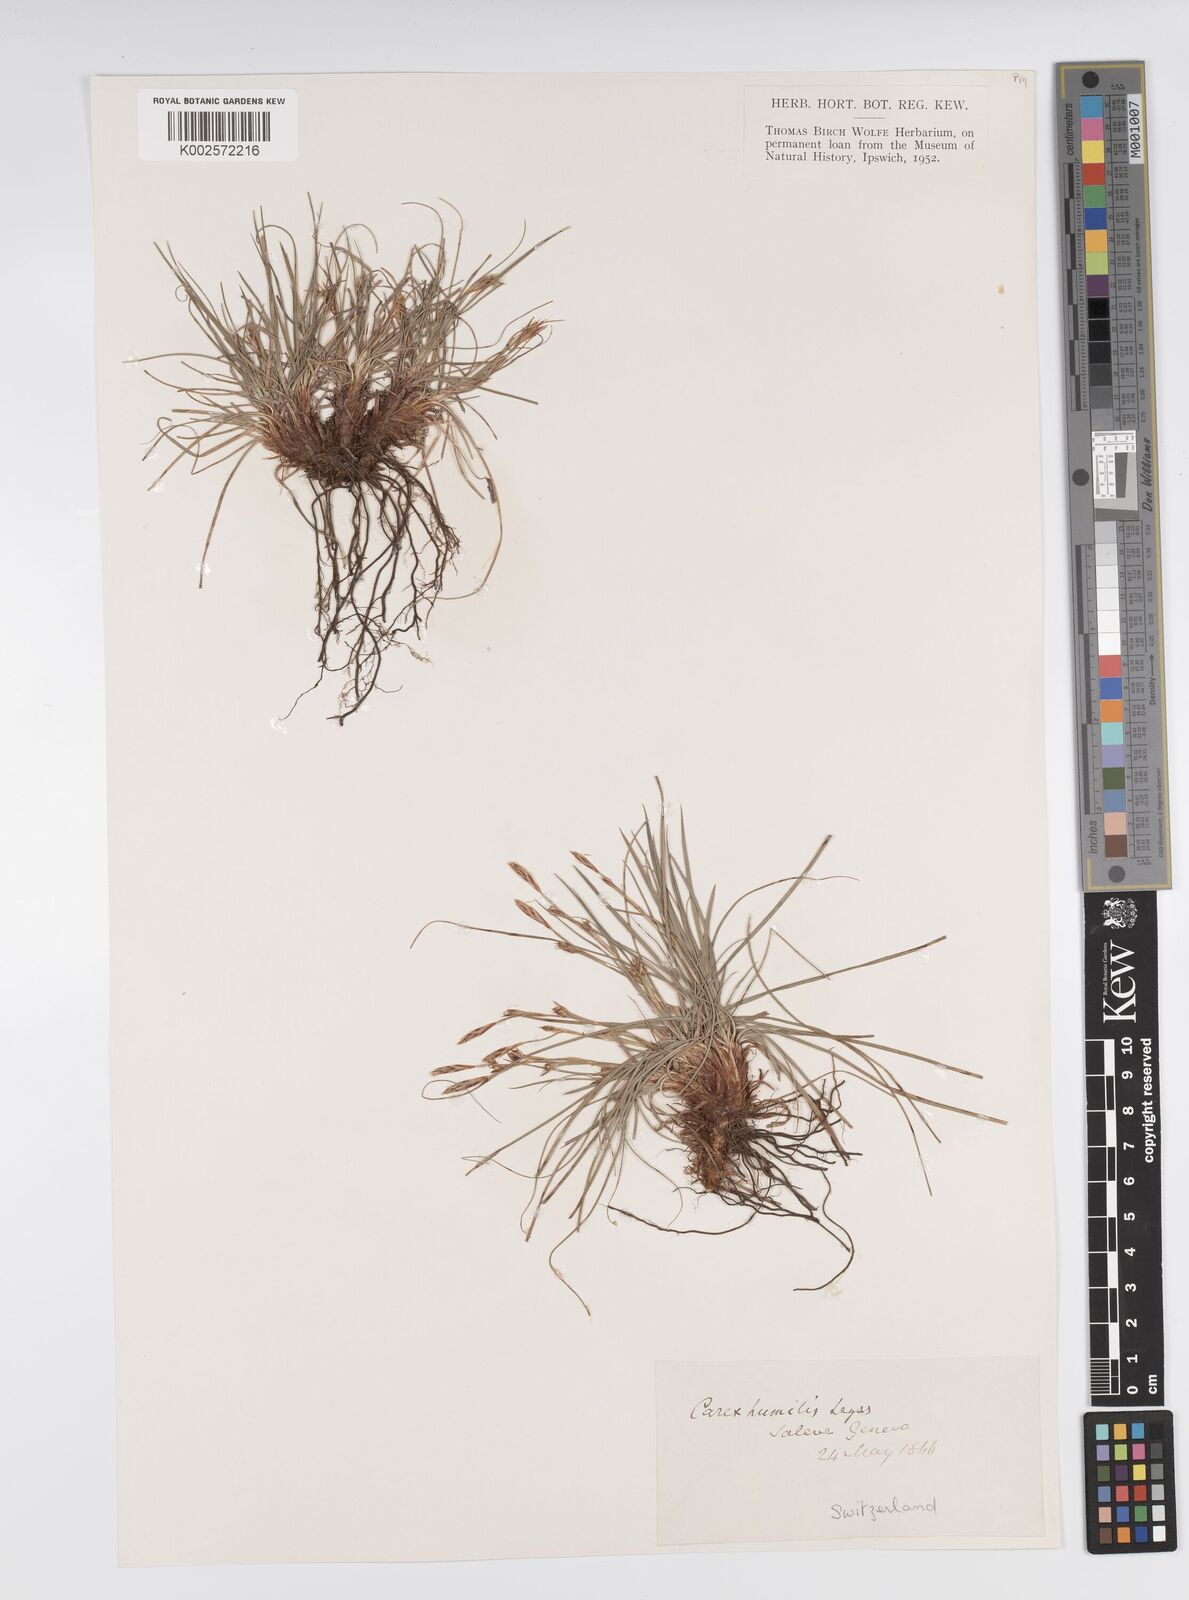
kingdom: Plantae
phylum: Tracheophyta
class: Liliopsida
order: Poales
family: Cyperaceae
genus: Carex
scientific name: Carex humilis
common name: Dwarf sedge
